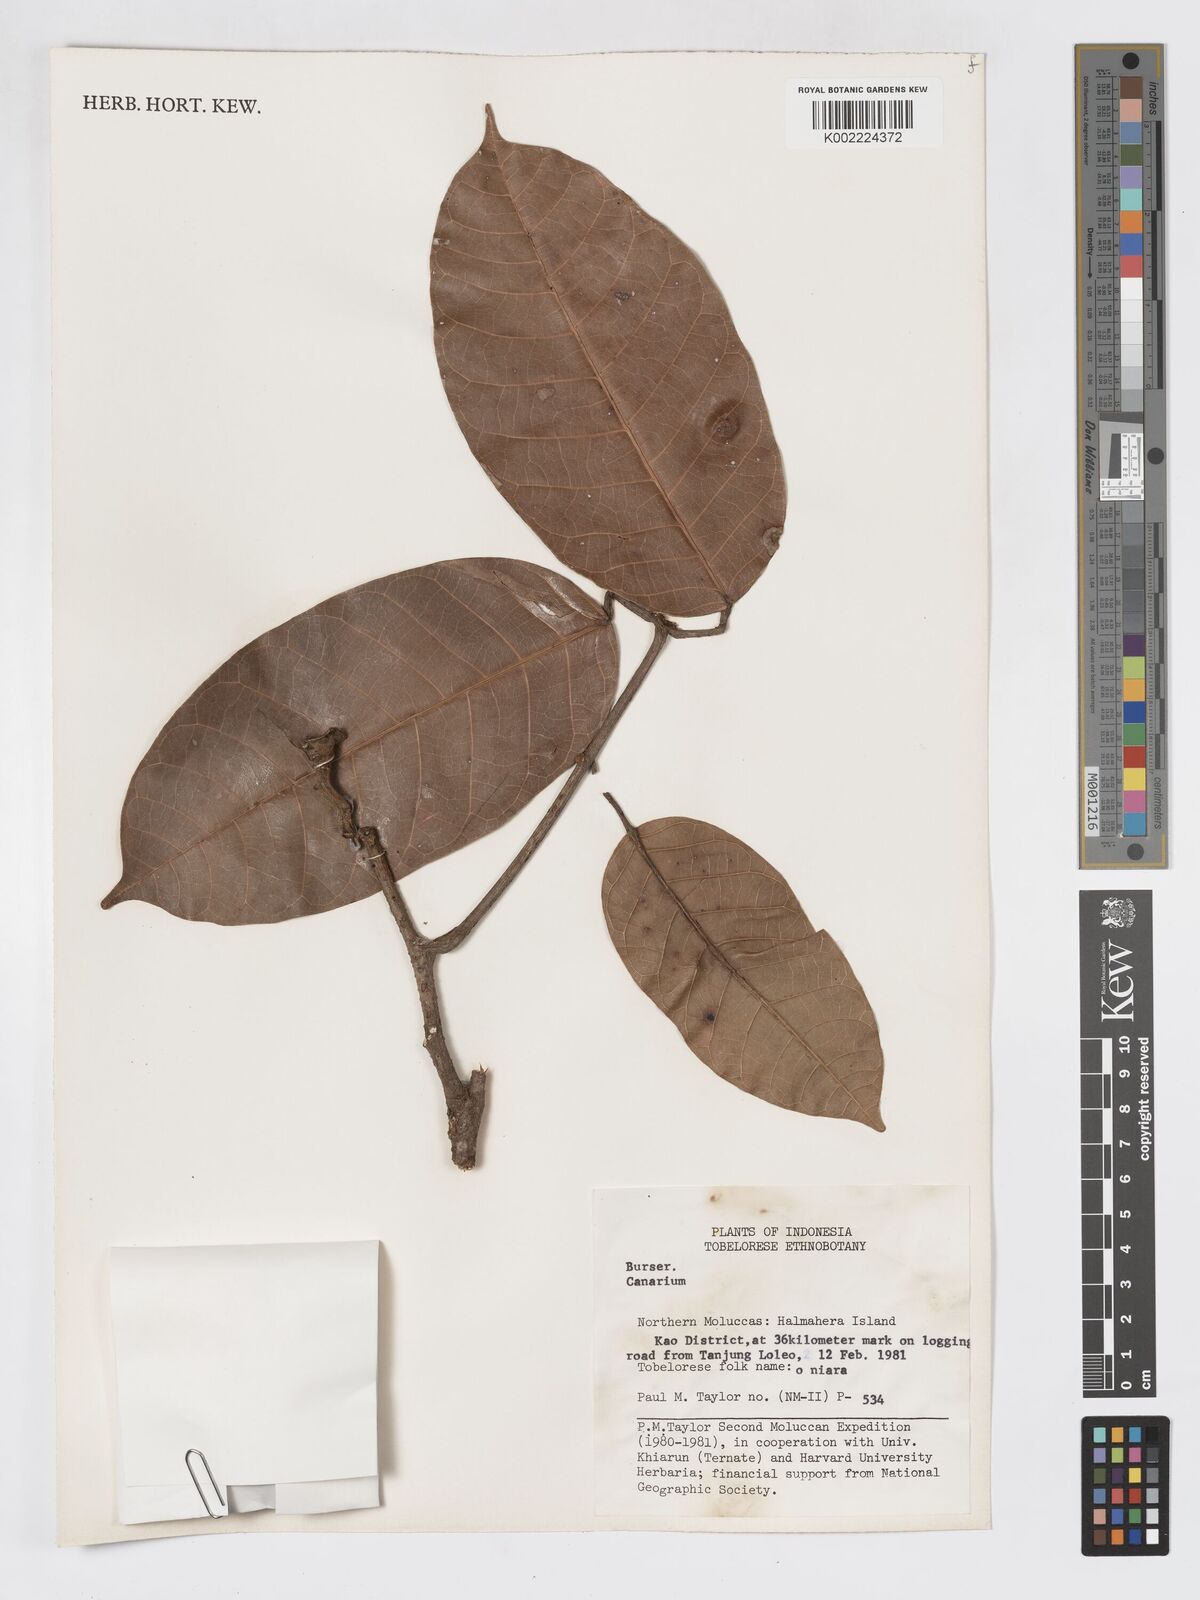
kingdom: Plantae
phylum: Tracheophyta
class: Magnoliopsida
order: Sapindales
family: Burseraceae
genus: Canarium
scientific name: Canarium
